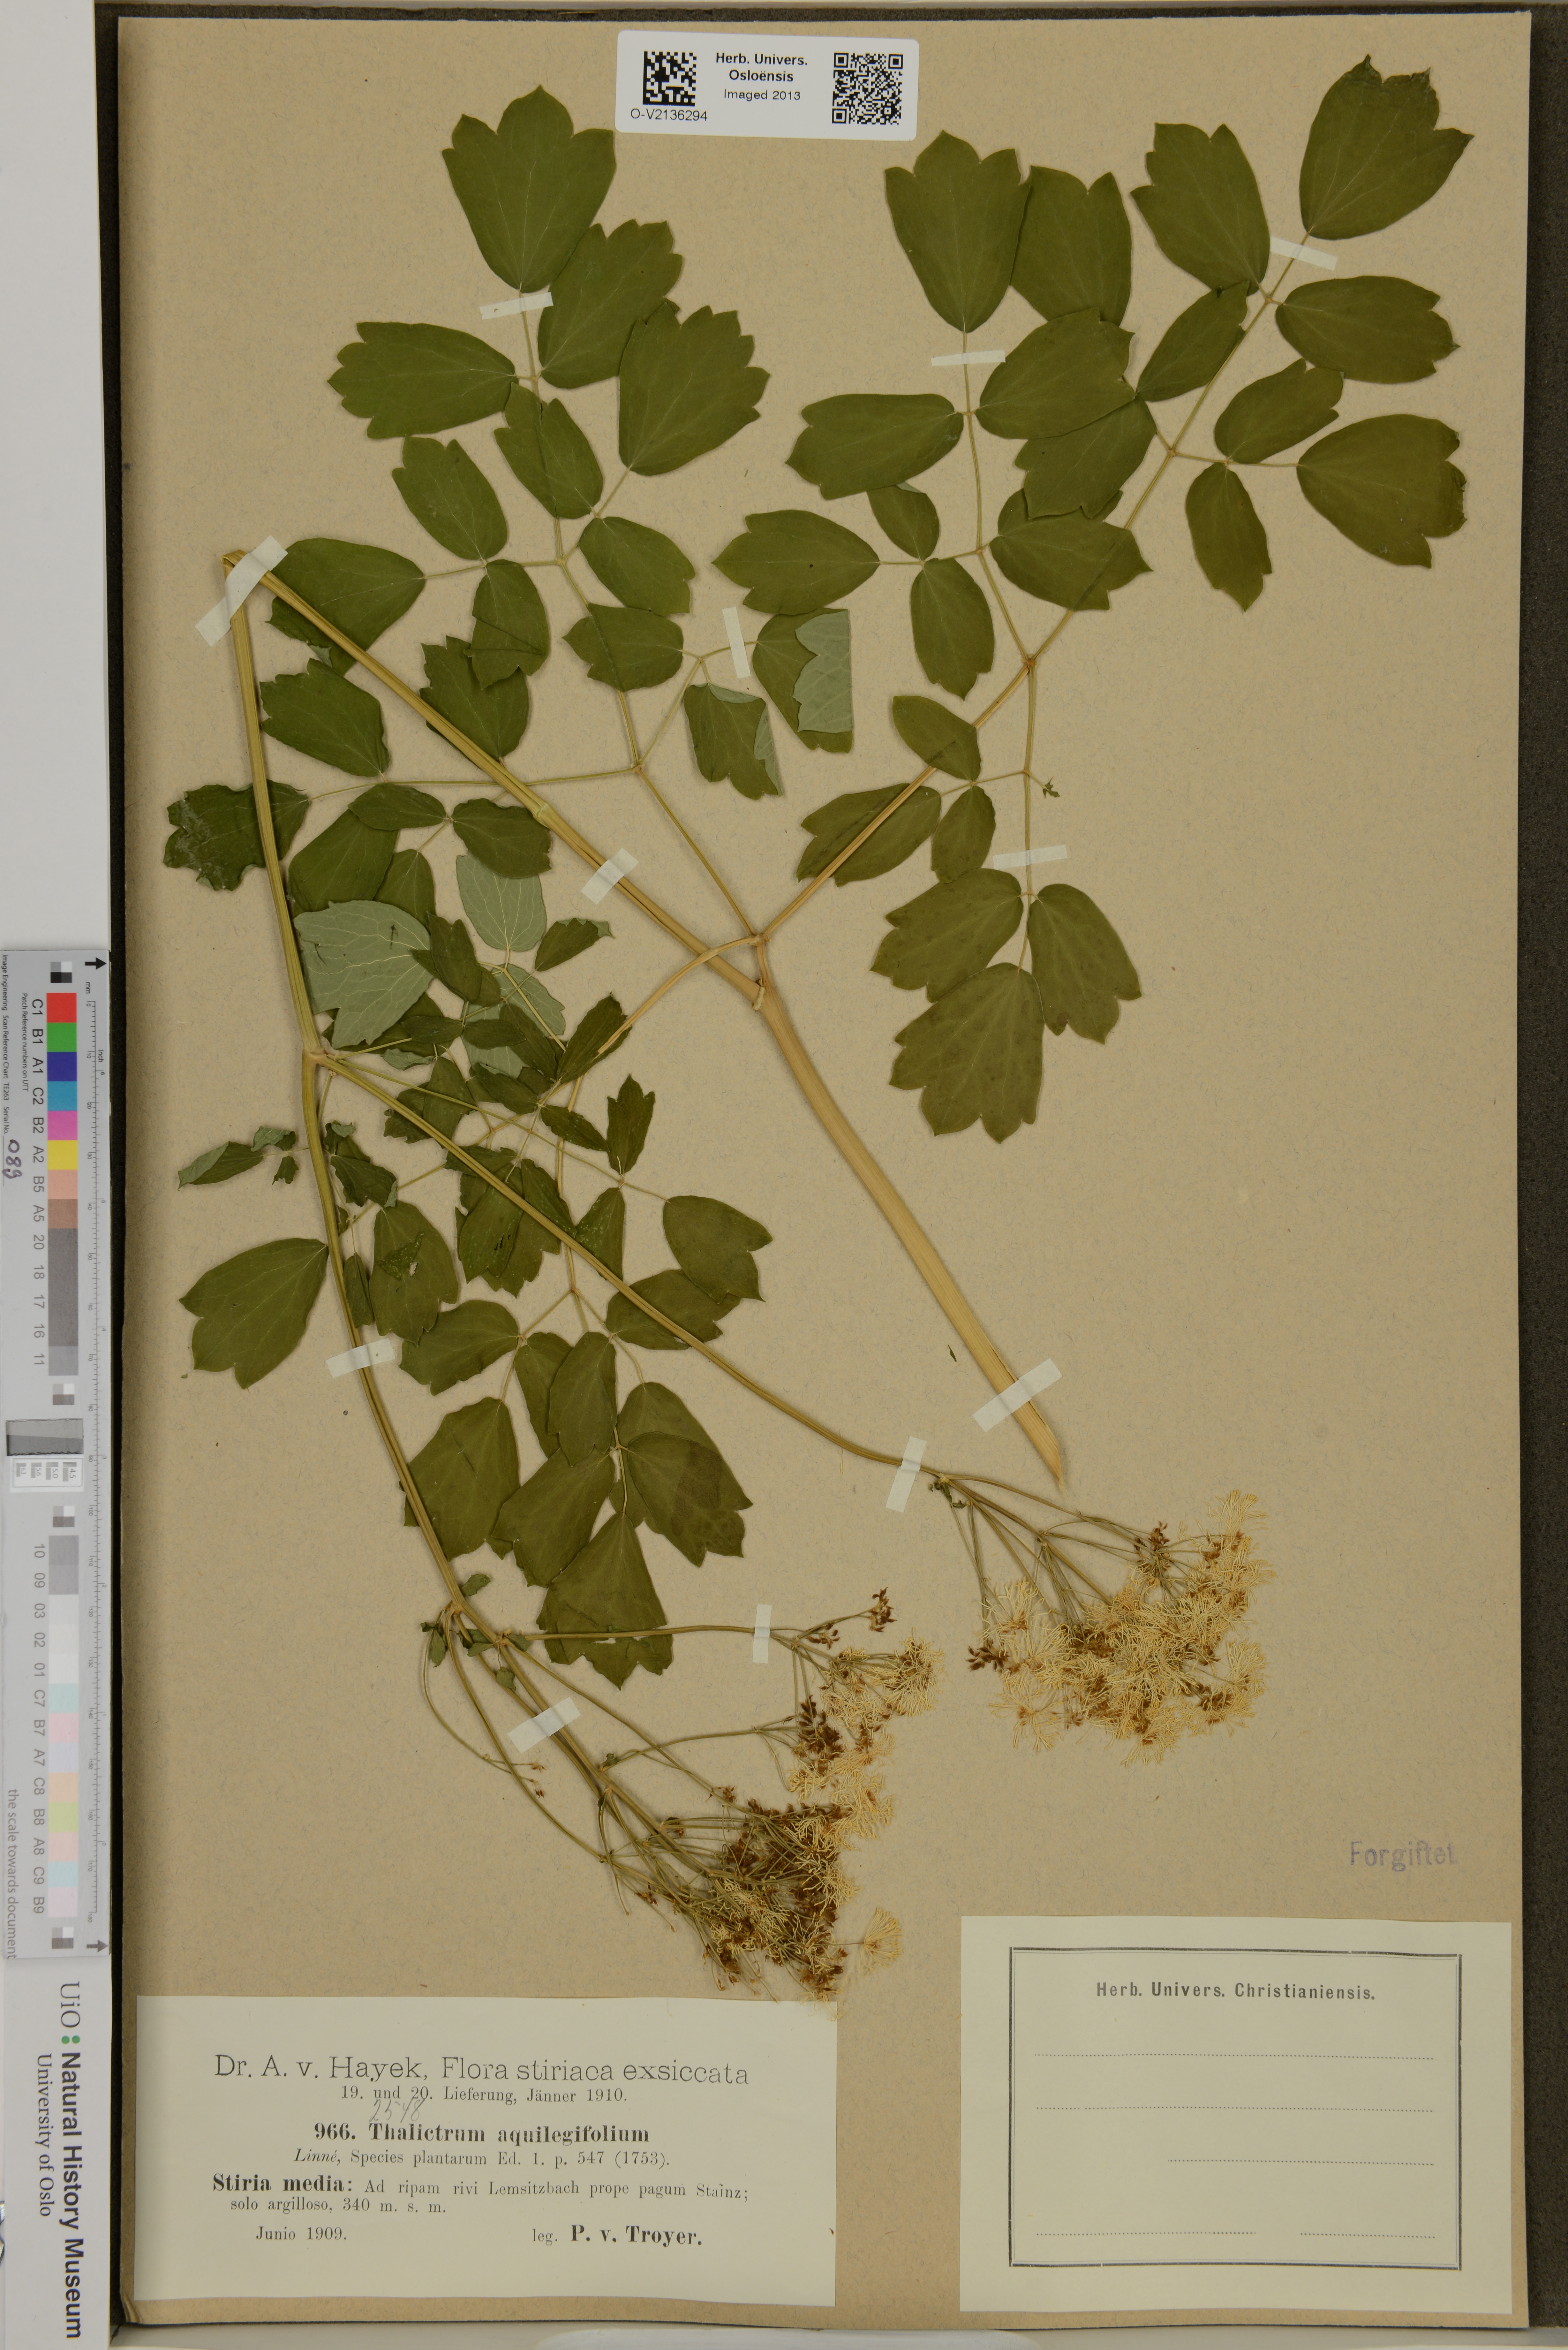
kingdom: Plantae
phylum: Tracheophyta
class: Magnoliopsida
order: Ranunculales
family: Ranunculaceae
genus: Thalictrum
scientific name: Thalictrum aquilegiifolium
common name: French meadow-rue
